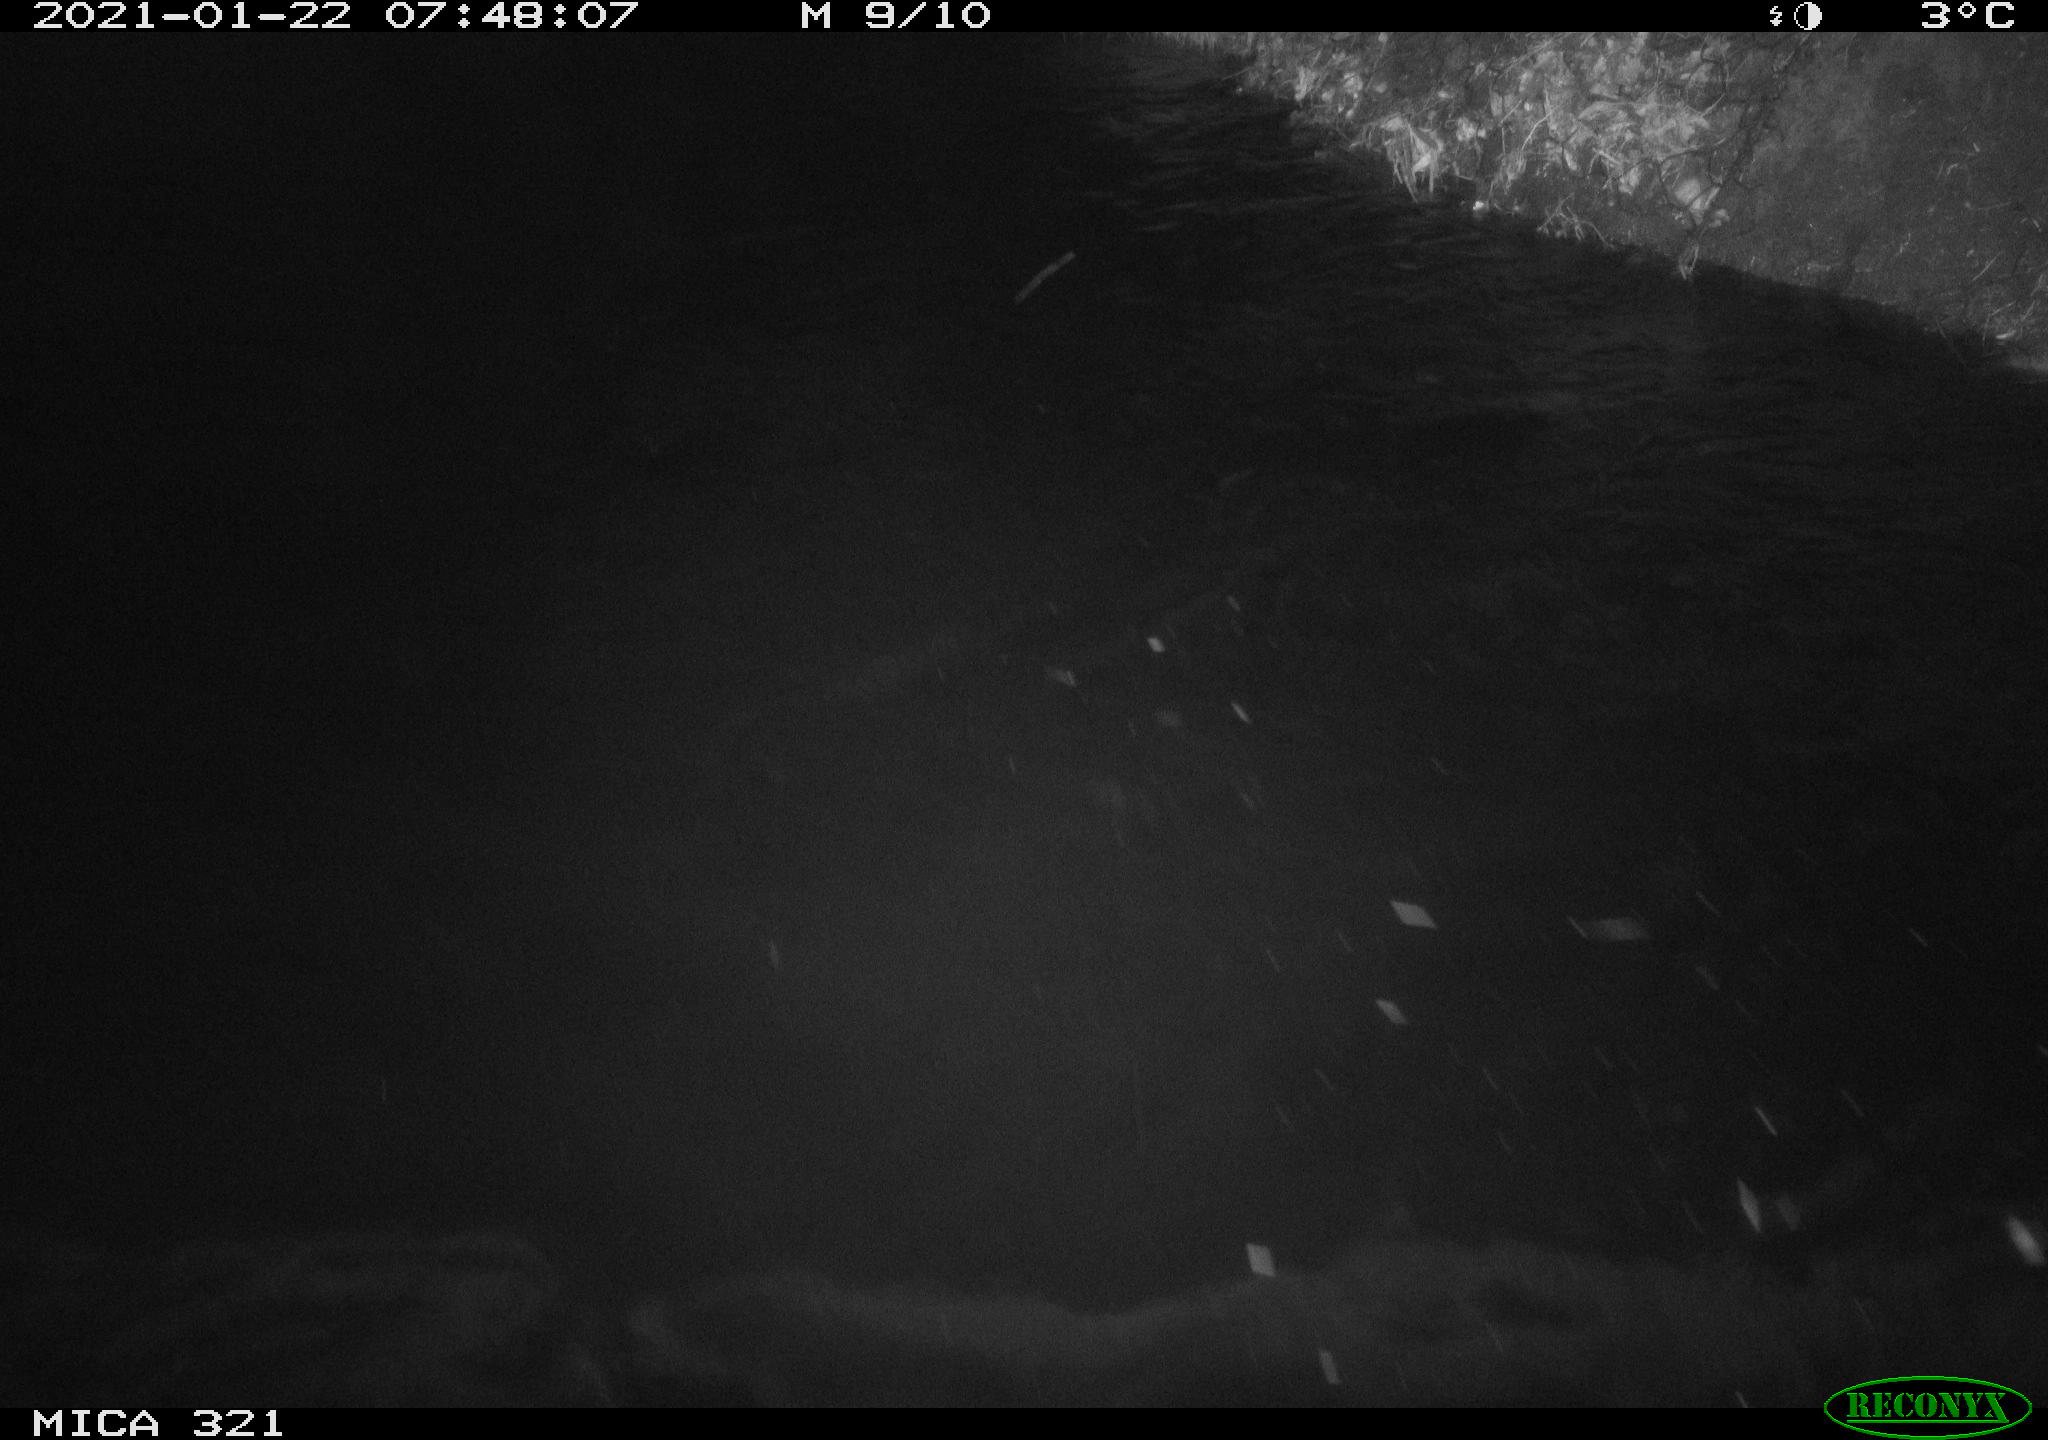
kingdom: Animalia
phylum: Chordata
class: Aves
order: Anseriformes
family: Anatidae
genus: Anas
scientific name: Anas platyrhynchos
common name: Mallard
